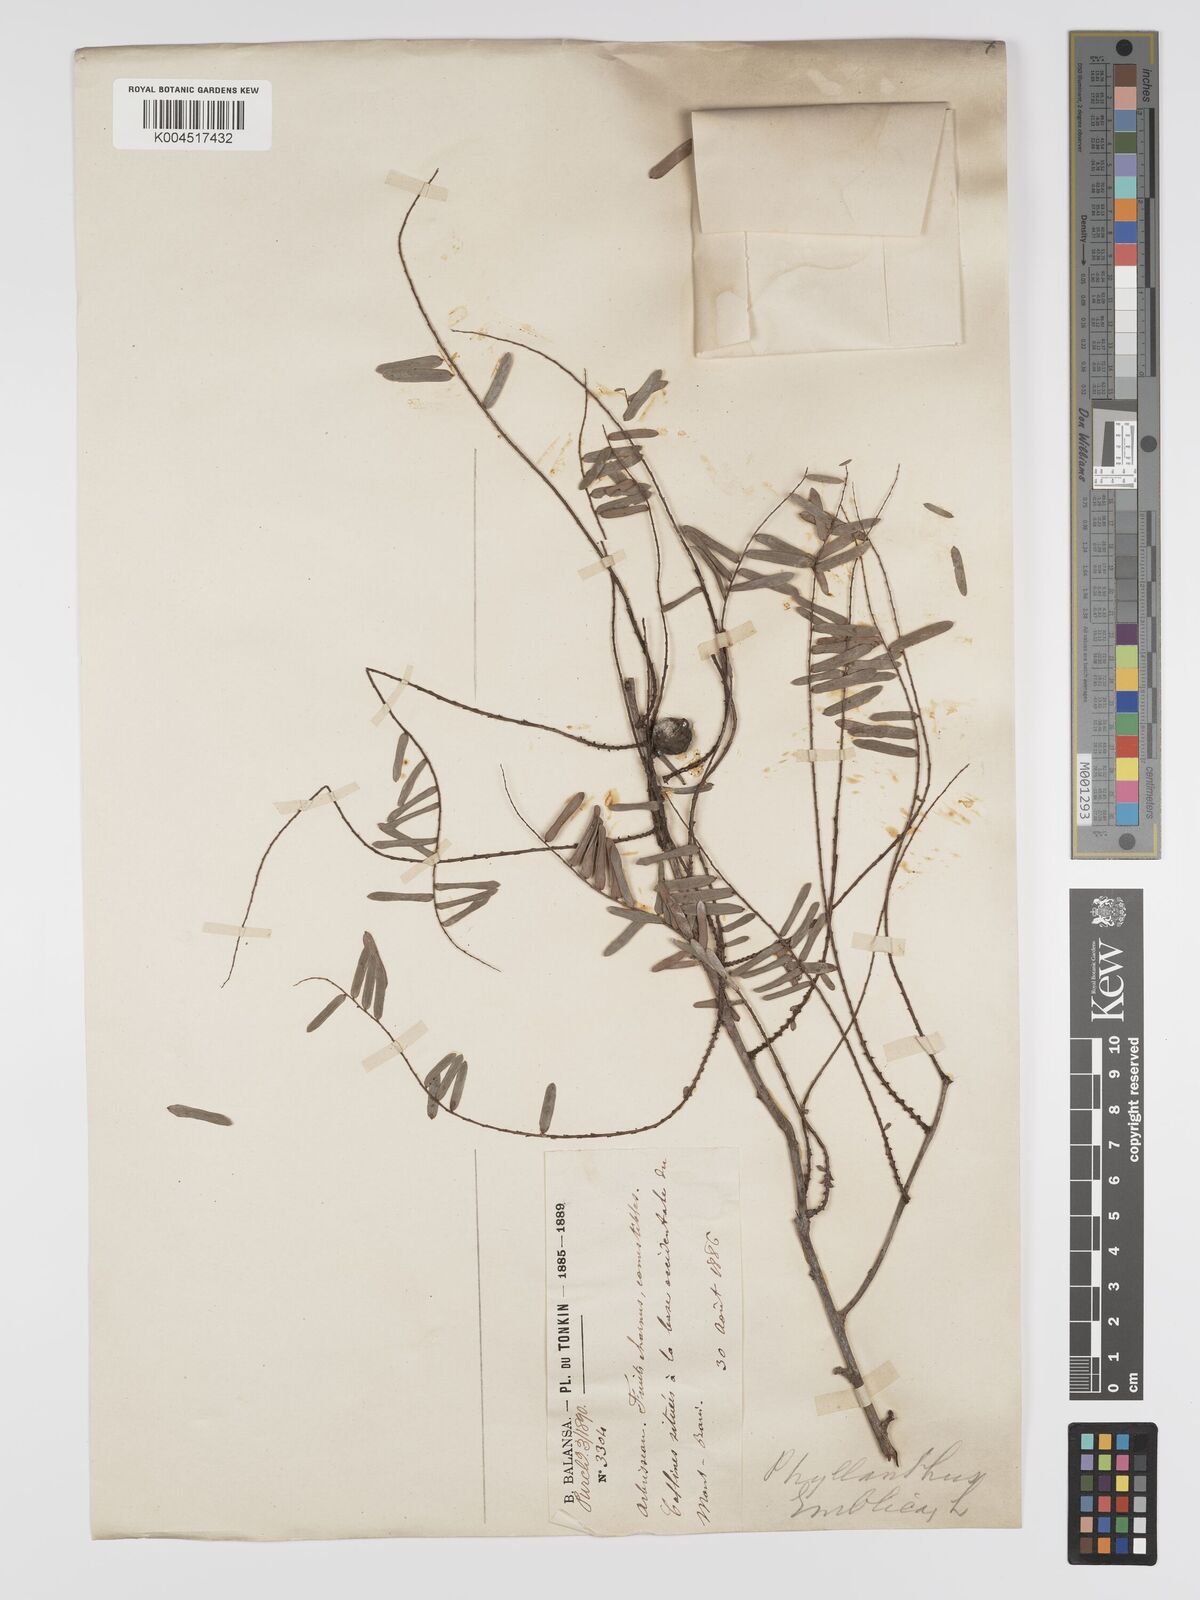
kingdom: Plantae
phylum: Tracheophyta
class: Magnoliopsida
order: Malpighiales
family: Phyllanthaceae
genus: Phyllanthus
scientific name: Phyllanthus emblica
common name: Indian gooseberry
